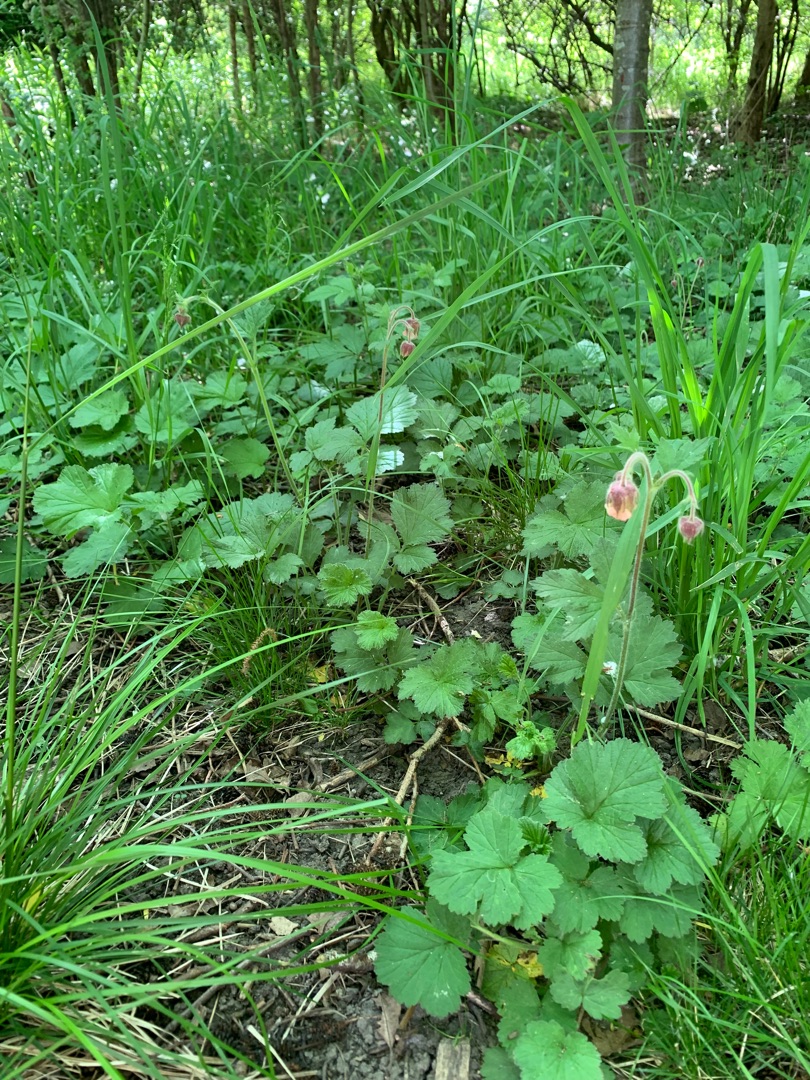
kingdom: Plantae
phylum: Tracheophyta
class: Magnoliopsida
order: Rosales
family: Rosaceae
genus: Geum
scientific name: Geum rivale
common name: Eng-nellikerod
